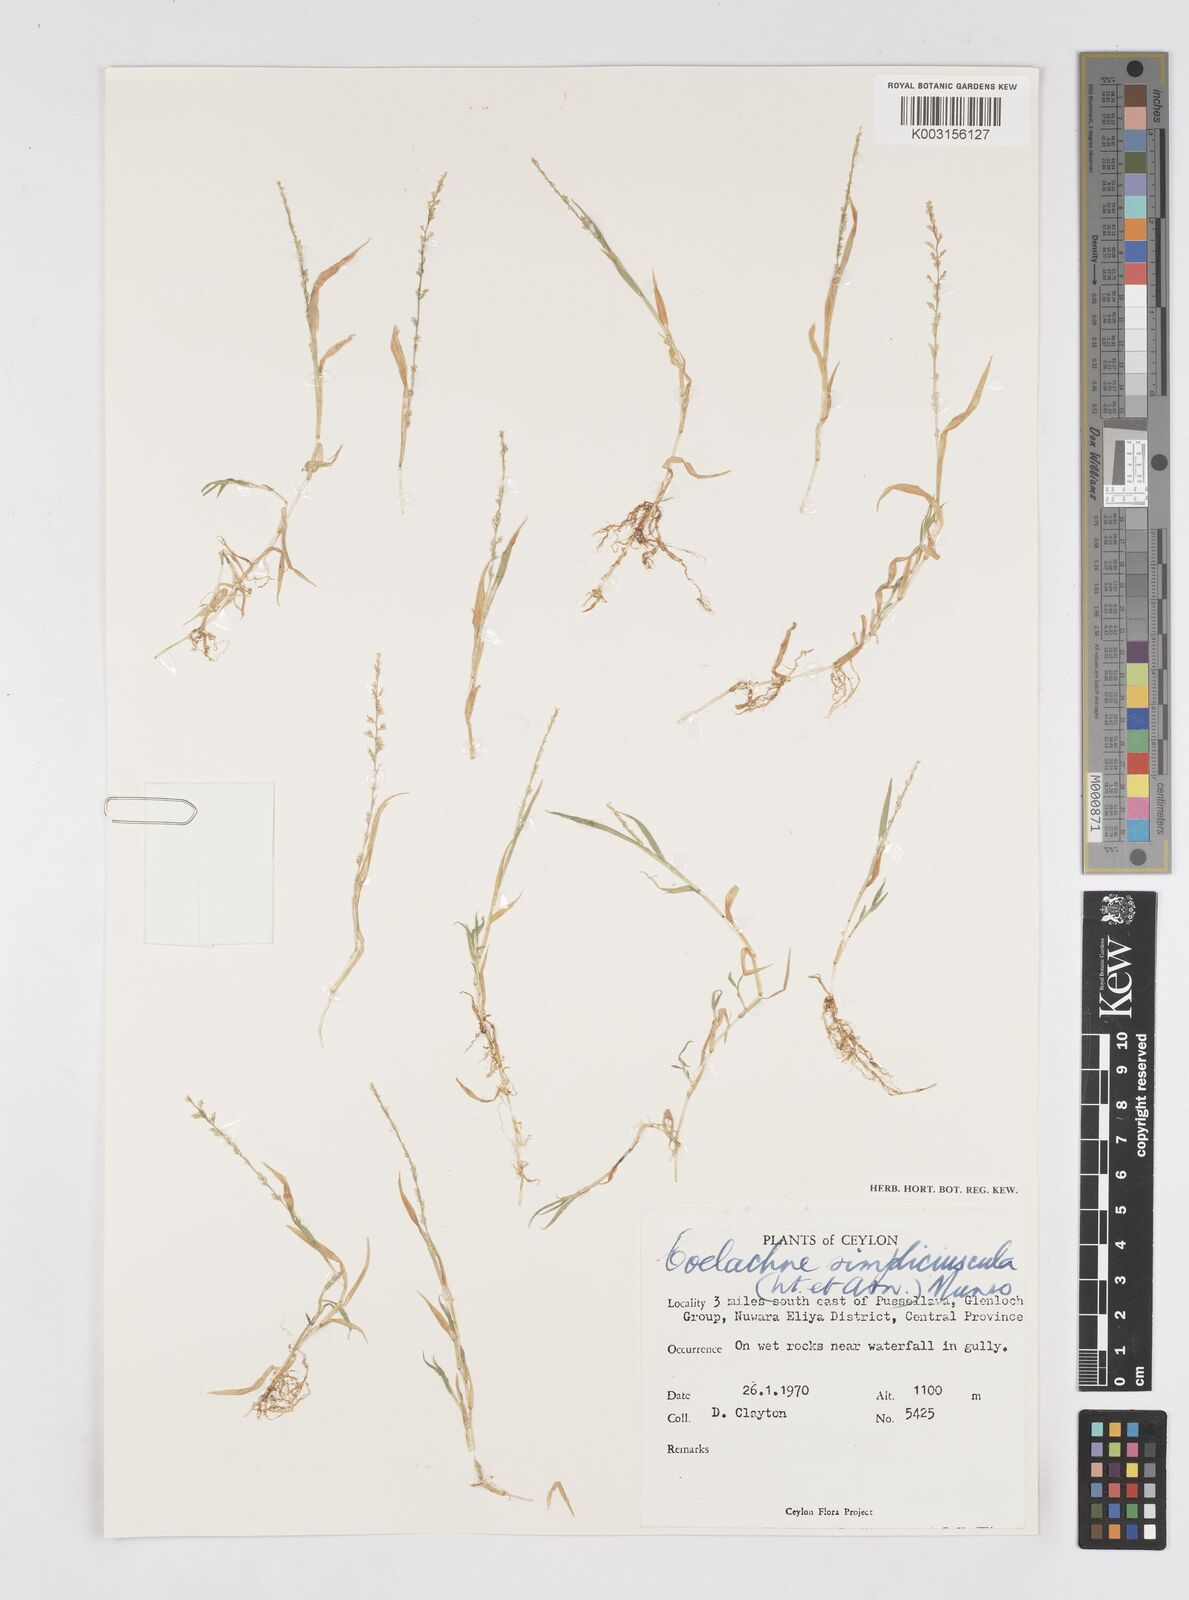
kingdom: Plantae
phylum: Tracheophyta
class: Liliopsida
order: Poales
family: Poaceae
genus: Coelachne
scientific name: Coelachne simpliciuscula
